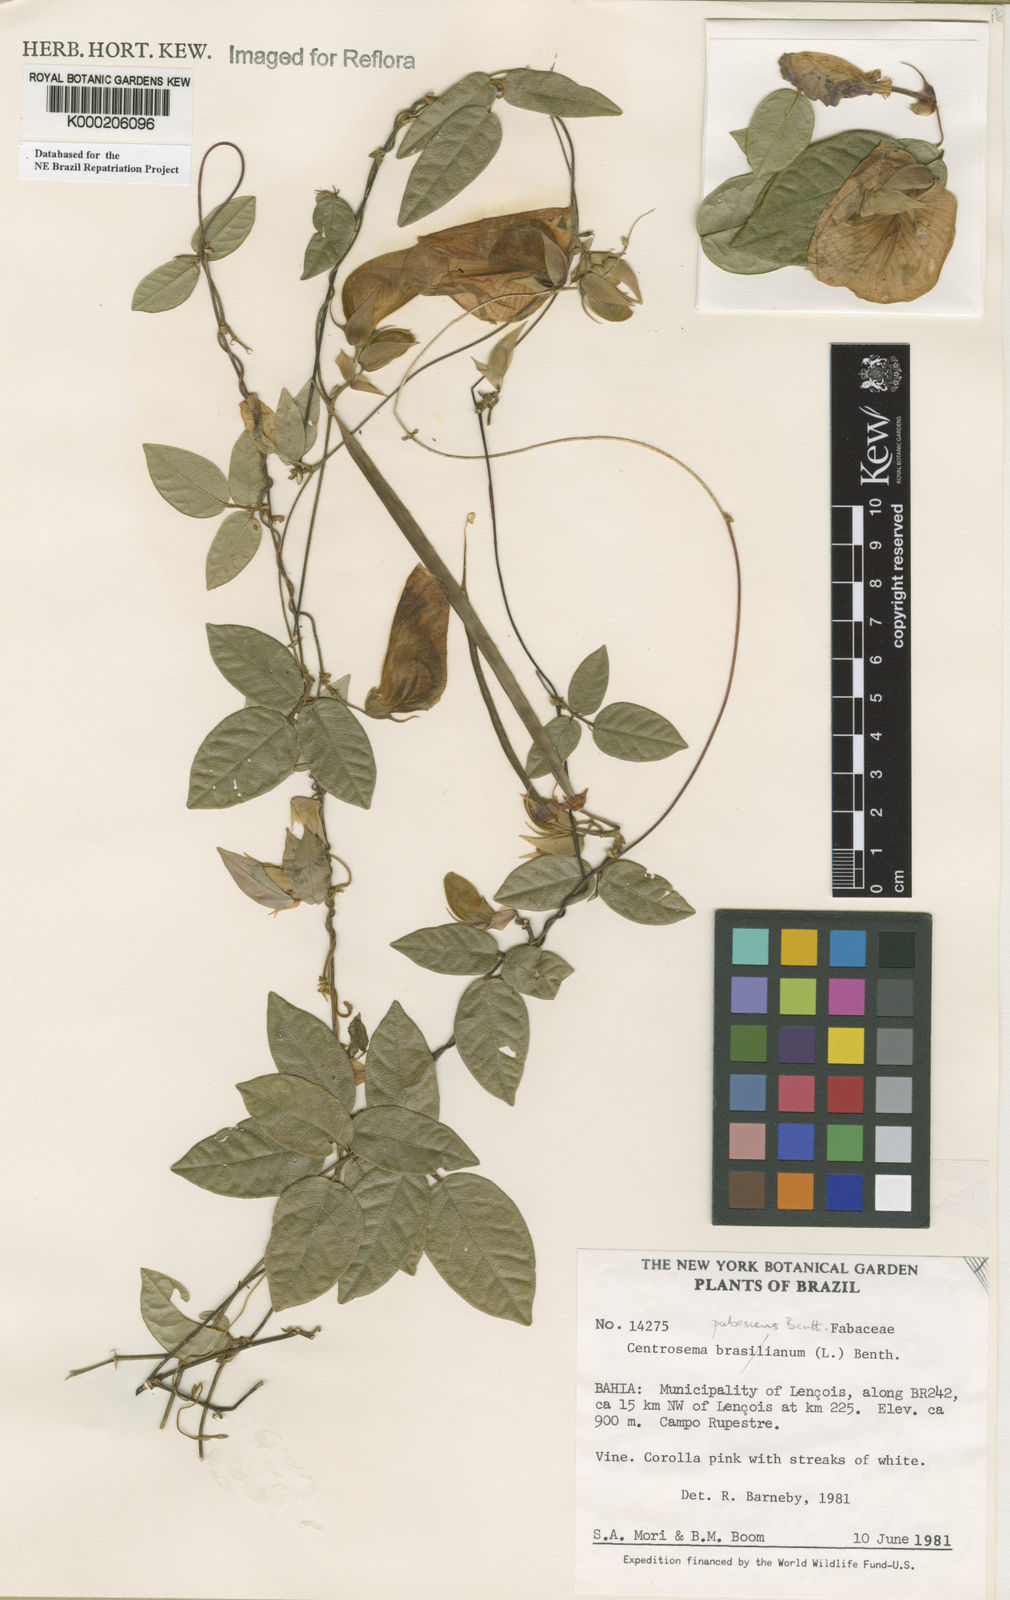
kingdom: Plantae
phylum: Tracheophyta
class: Magnoliopsida
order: Fabales
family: Fabaceae
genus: Centrosema
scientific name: Centrosema pubescens
